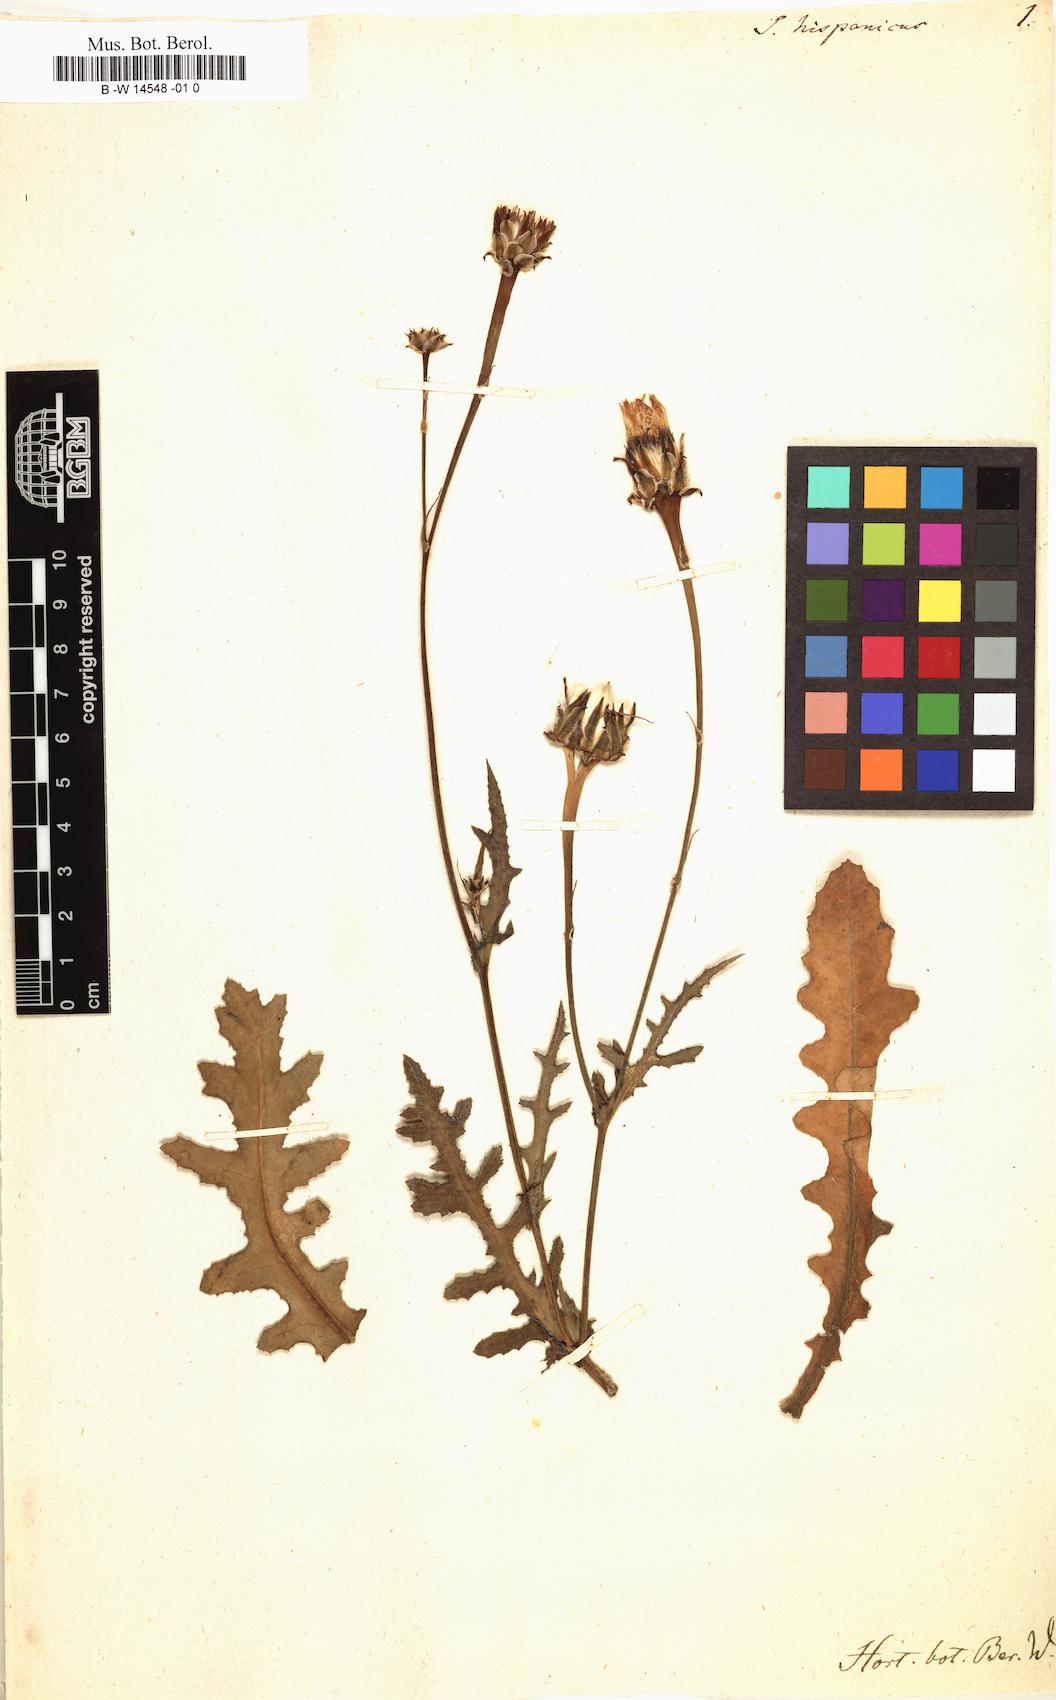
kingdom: Plantae
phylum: Tracheophyta
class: Magnoliopsida
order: Asterales
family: Asteraceae
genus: Reichardia
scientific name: Reichardia tingitana
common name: Reichardia
